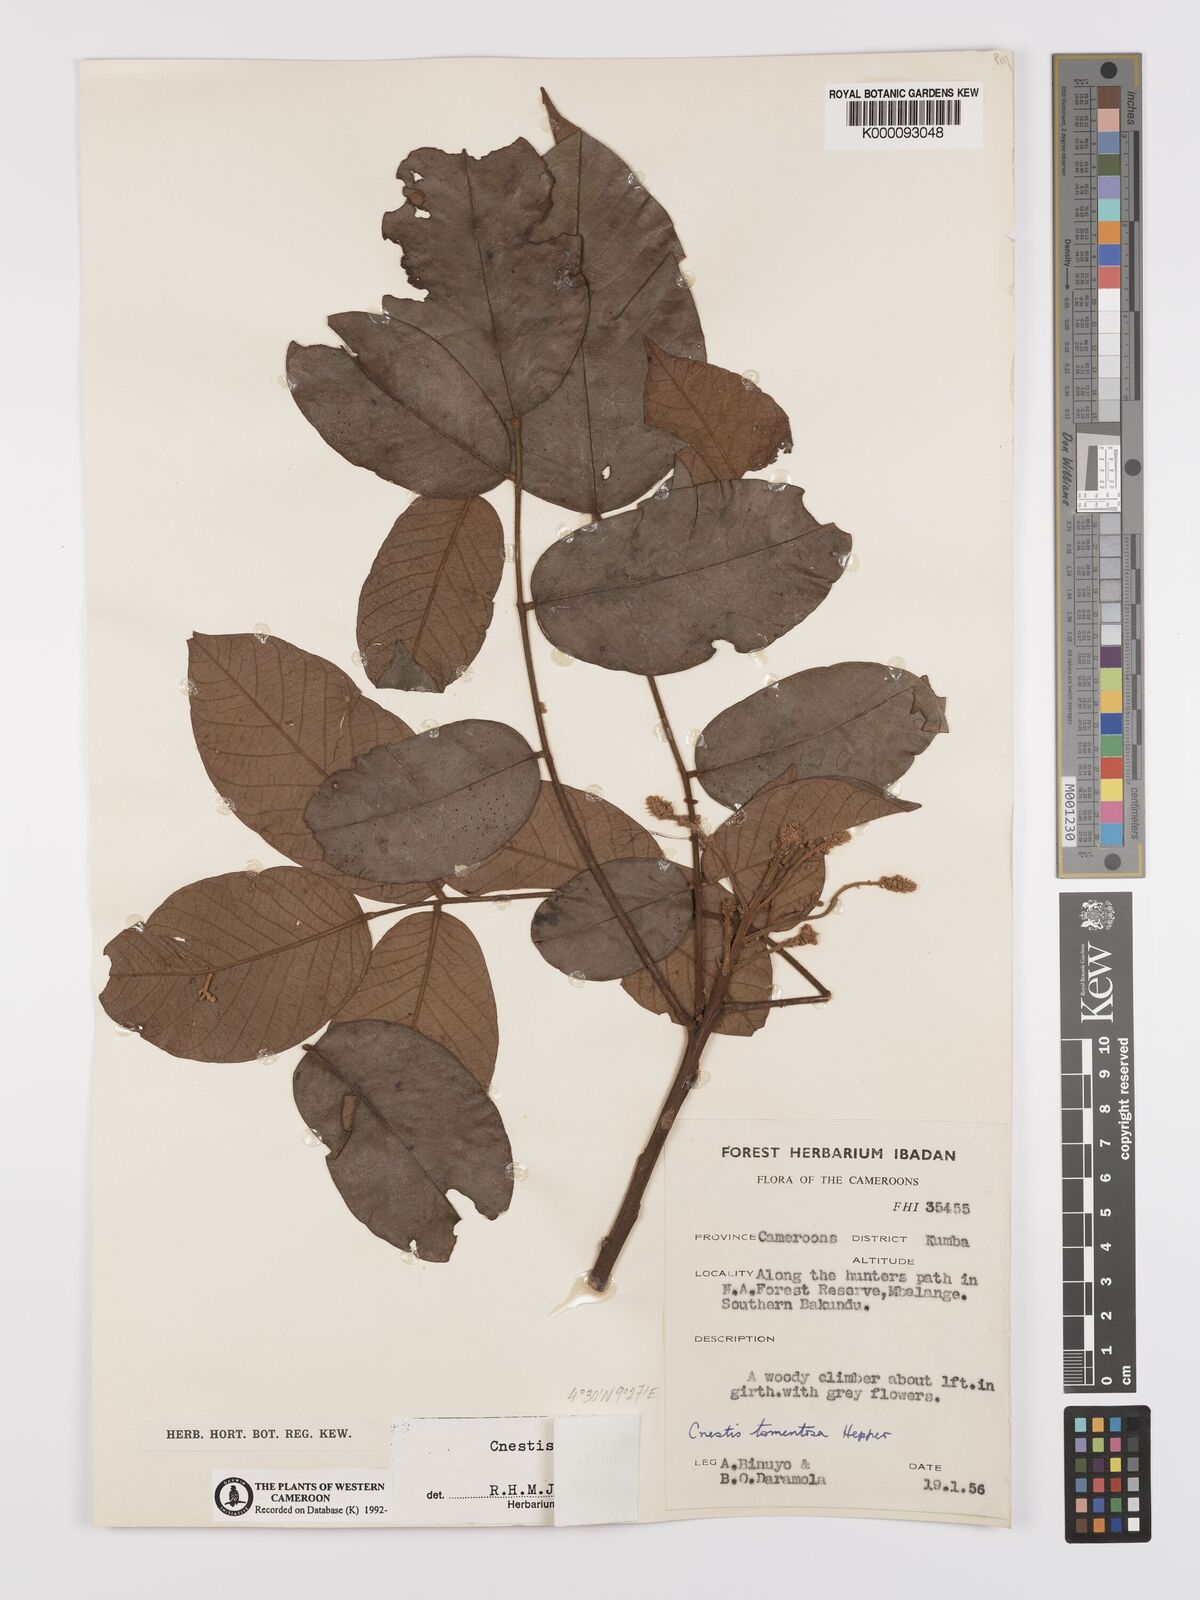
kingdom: Plantae
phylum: Tracheophyta
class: Magnoliopsida
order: Oxalidales
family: Connaraceae
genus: Cnestis
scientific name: Cnestis mannii
